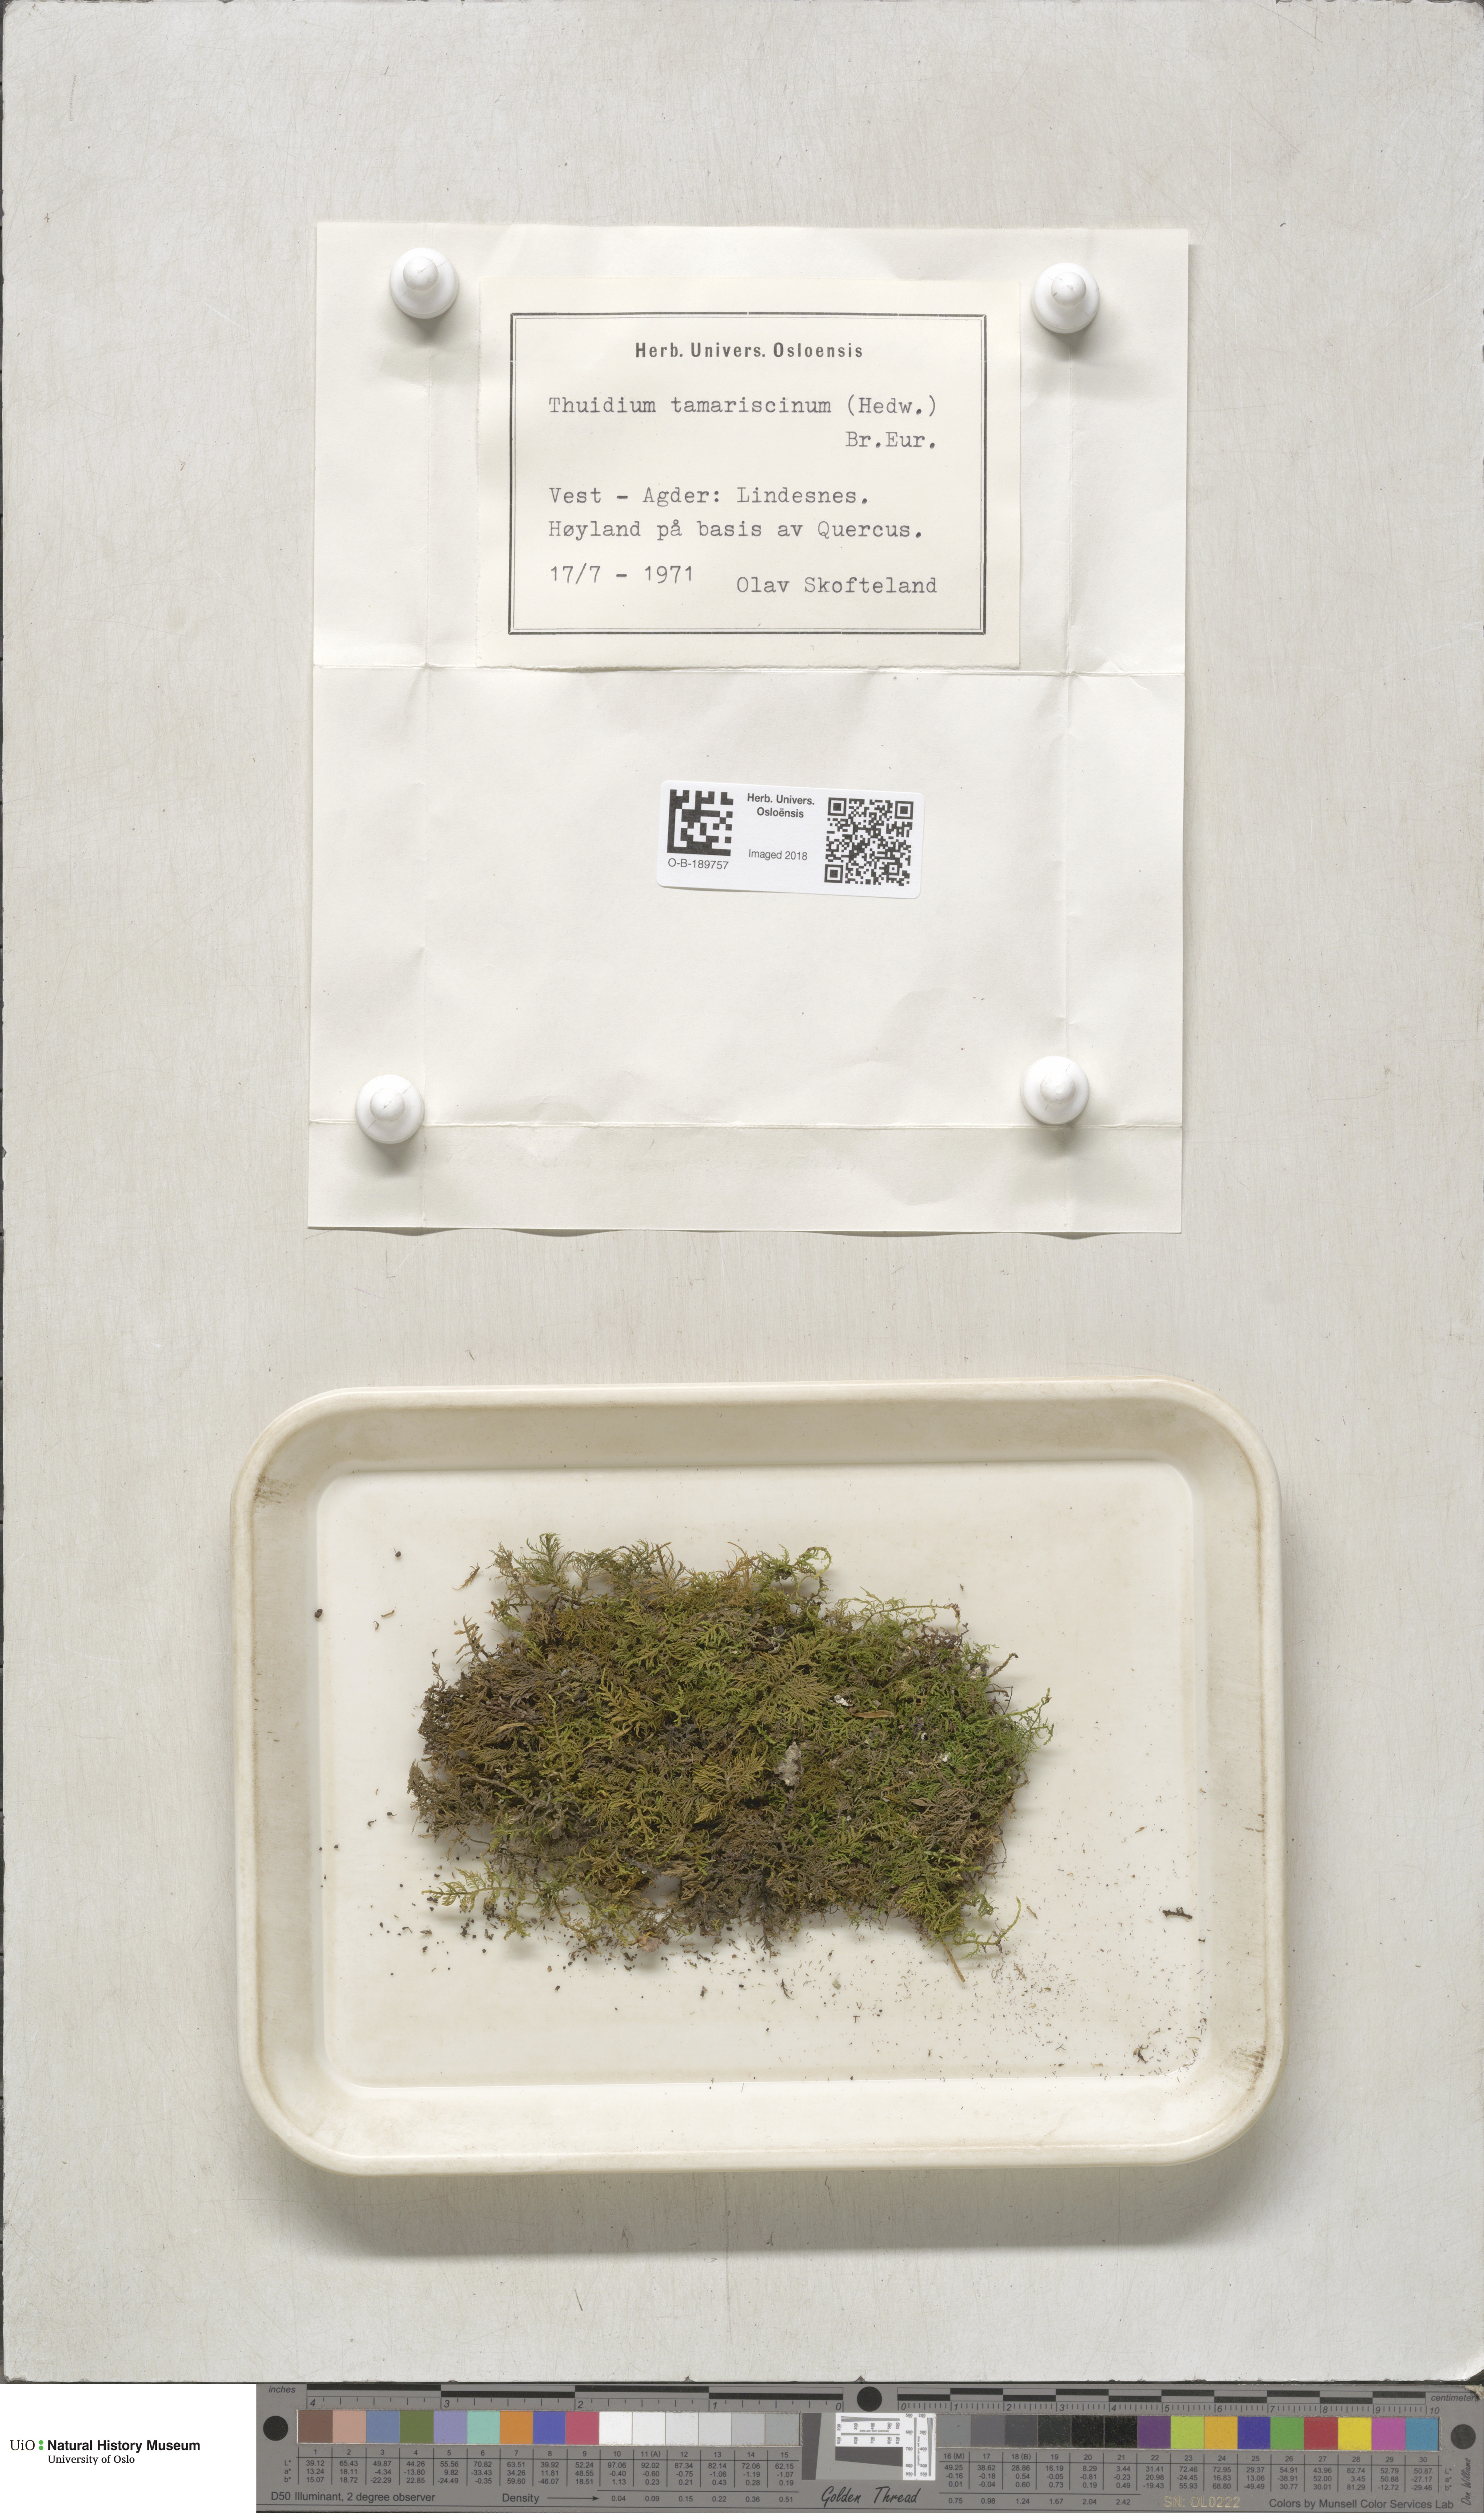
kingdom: Plantae
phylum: Bryophyta
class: Bryopsida
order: Hypnales
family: Thuidiaceae
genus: Thuidium
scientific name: Thuidium tamariscinum
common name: Common tamarisk-moss
